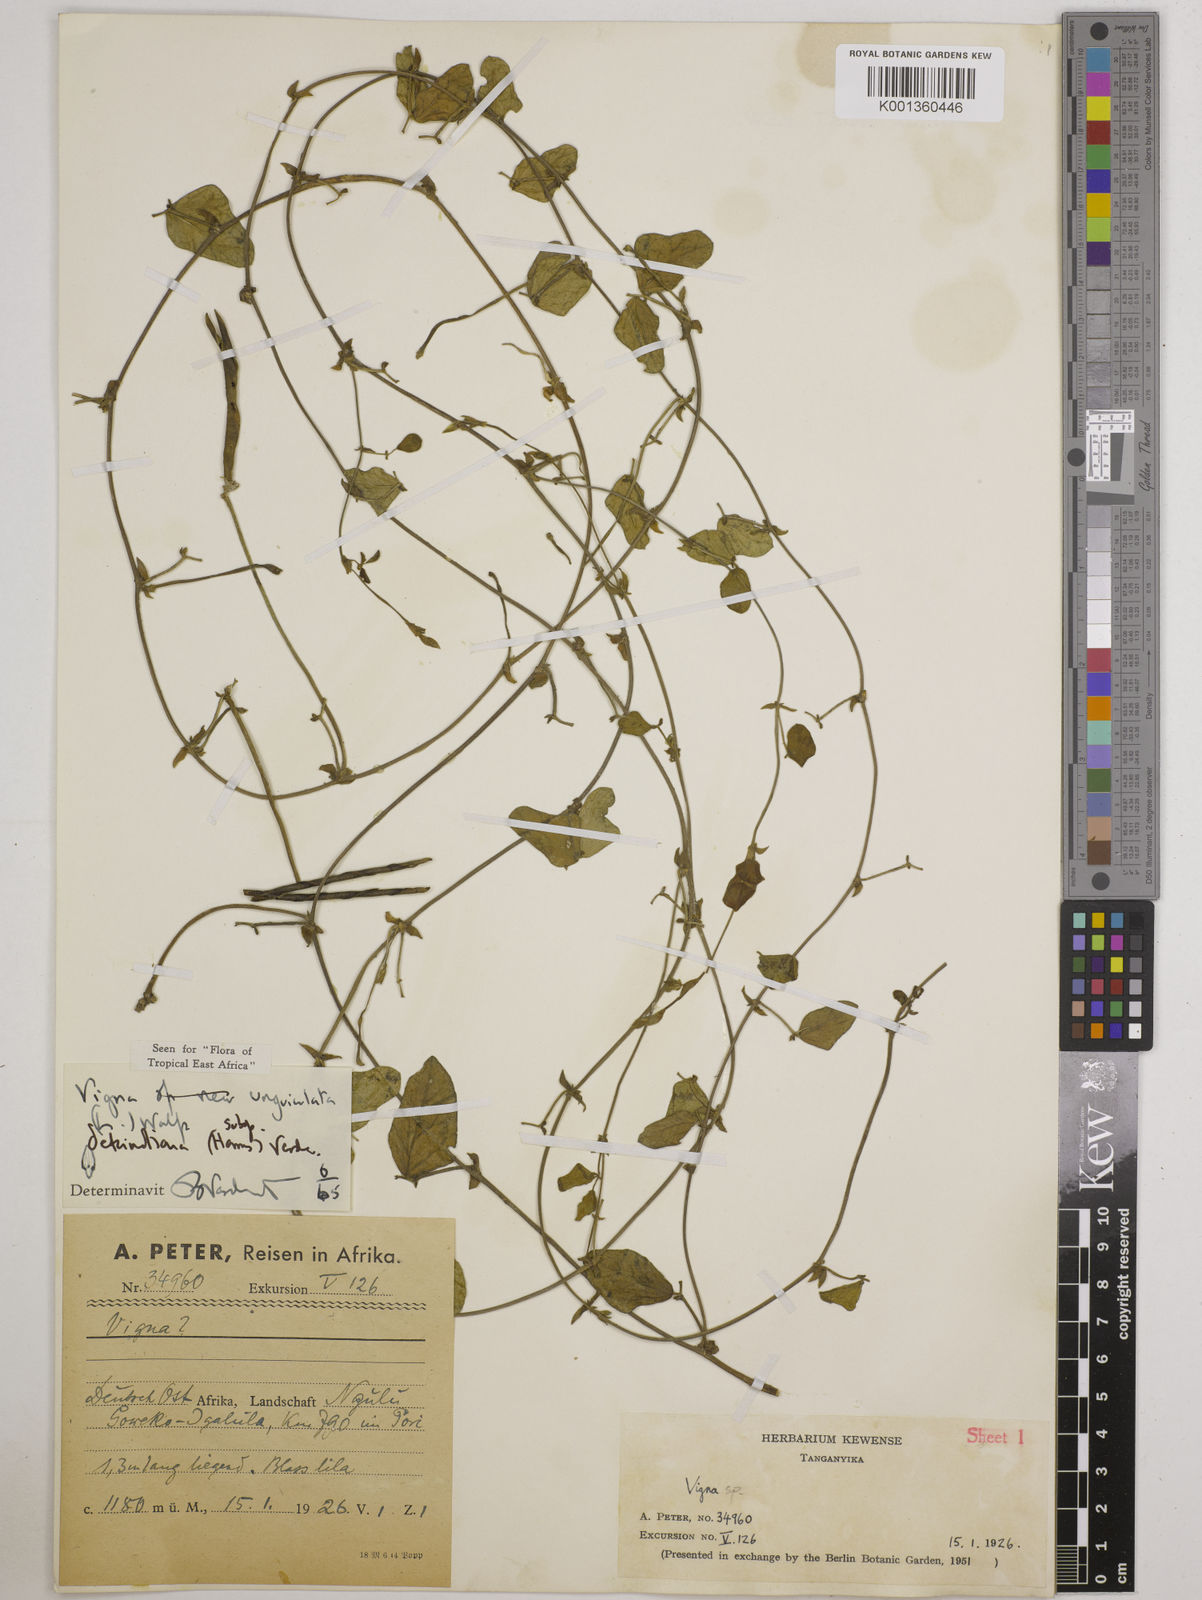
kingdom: Plantae
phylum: Tracheophyta
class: Magnoliopsida
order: Fabales
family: Fabaceae
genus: Vigna
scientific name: Vigna
